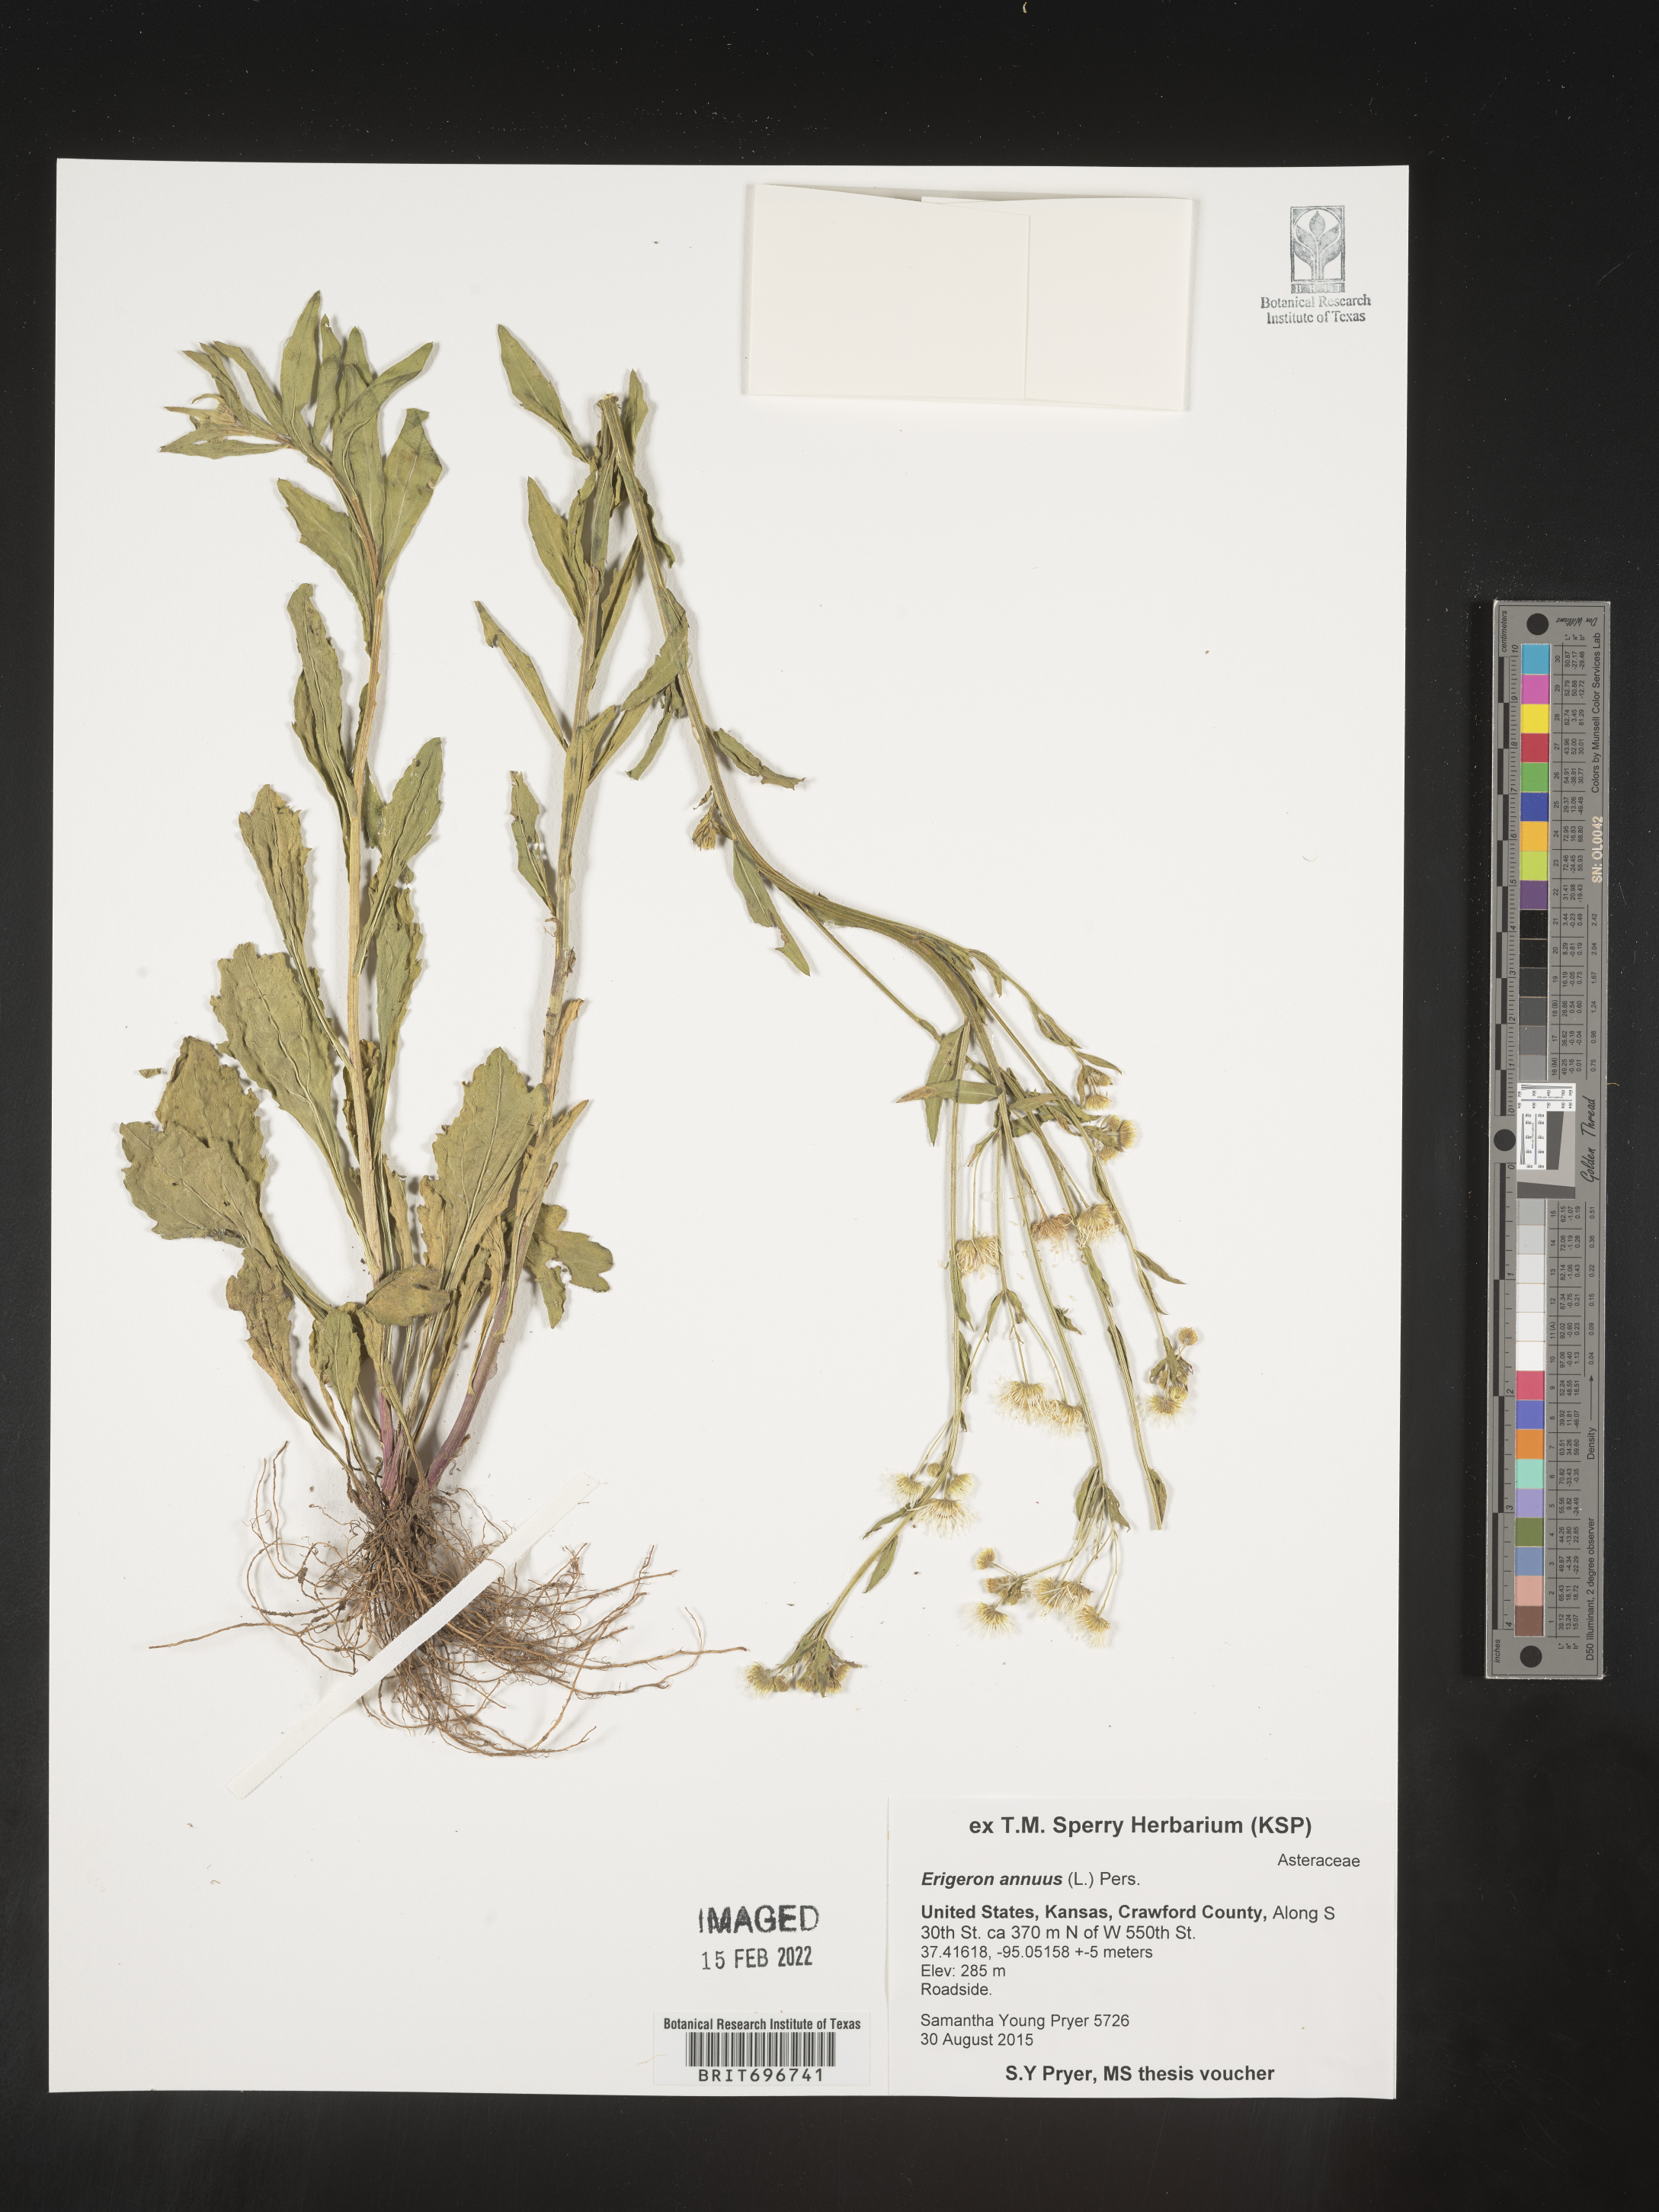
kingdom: Plantae
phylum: Tracheophyta
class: Magnoliopsida
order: Asterales
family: Asteraceae
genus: Erigeron
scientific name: Erigeron annuus
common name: Tall fleabane
